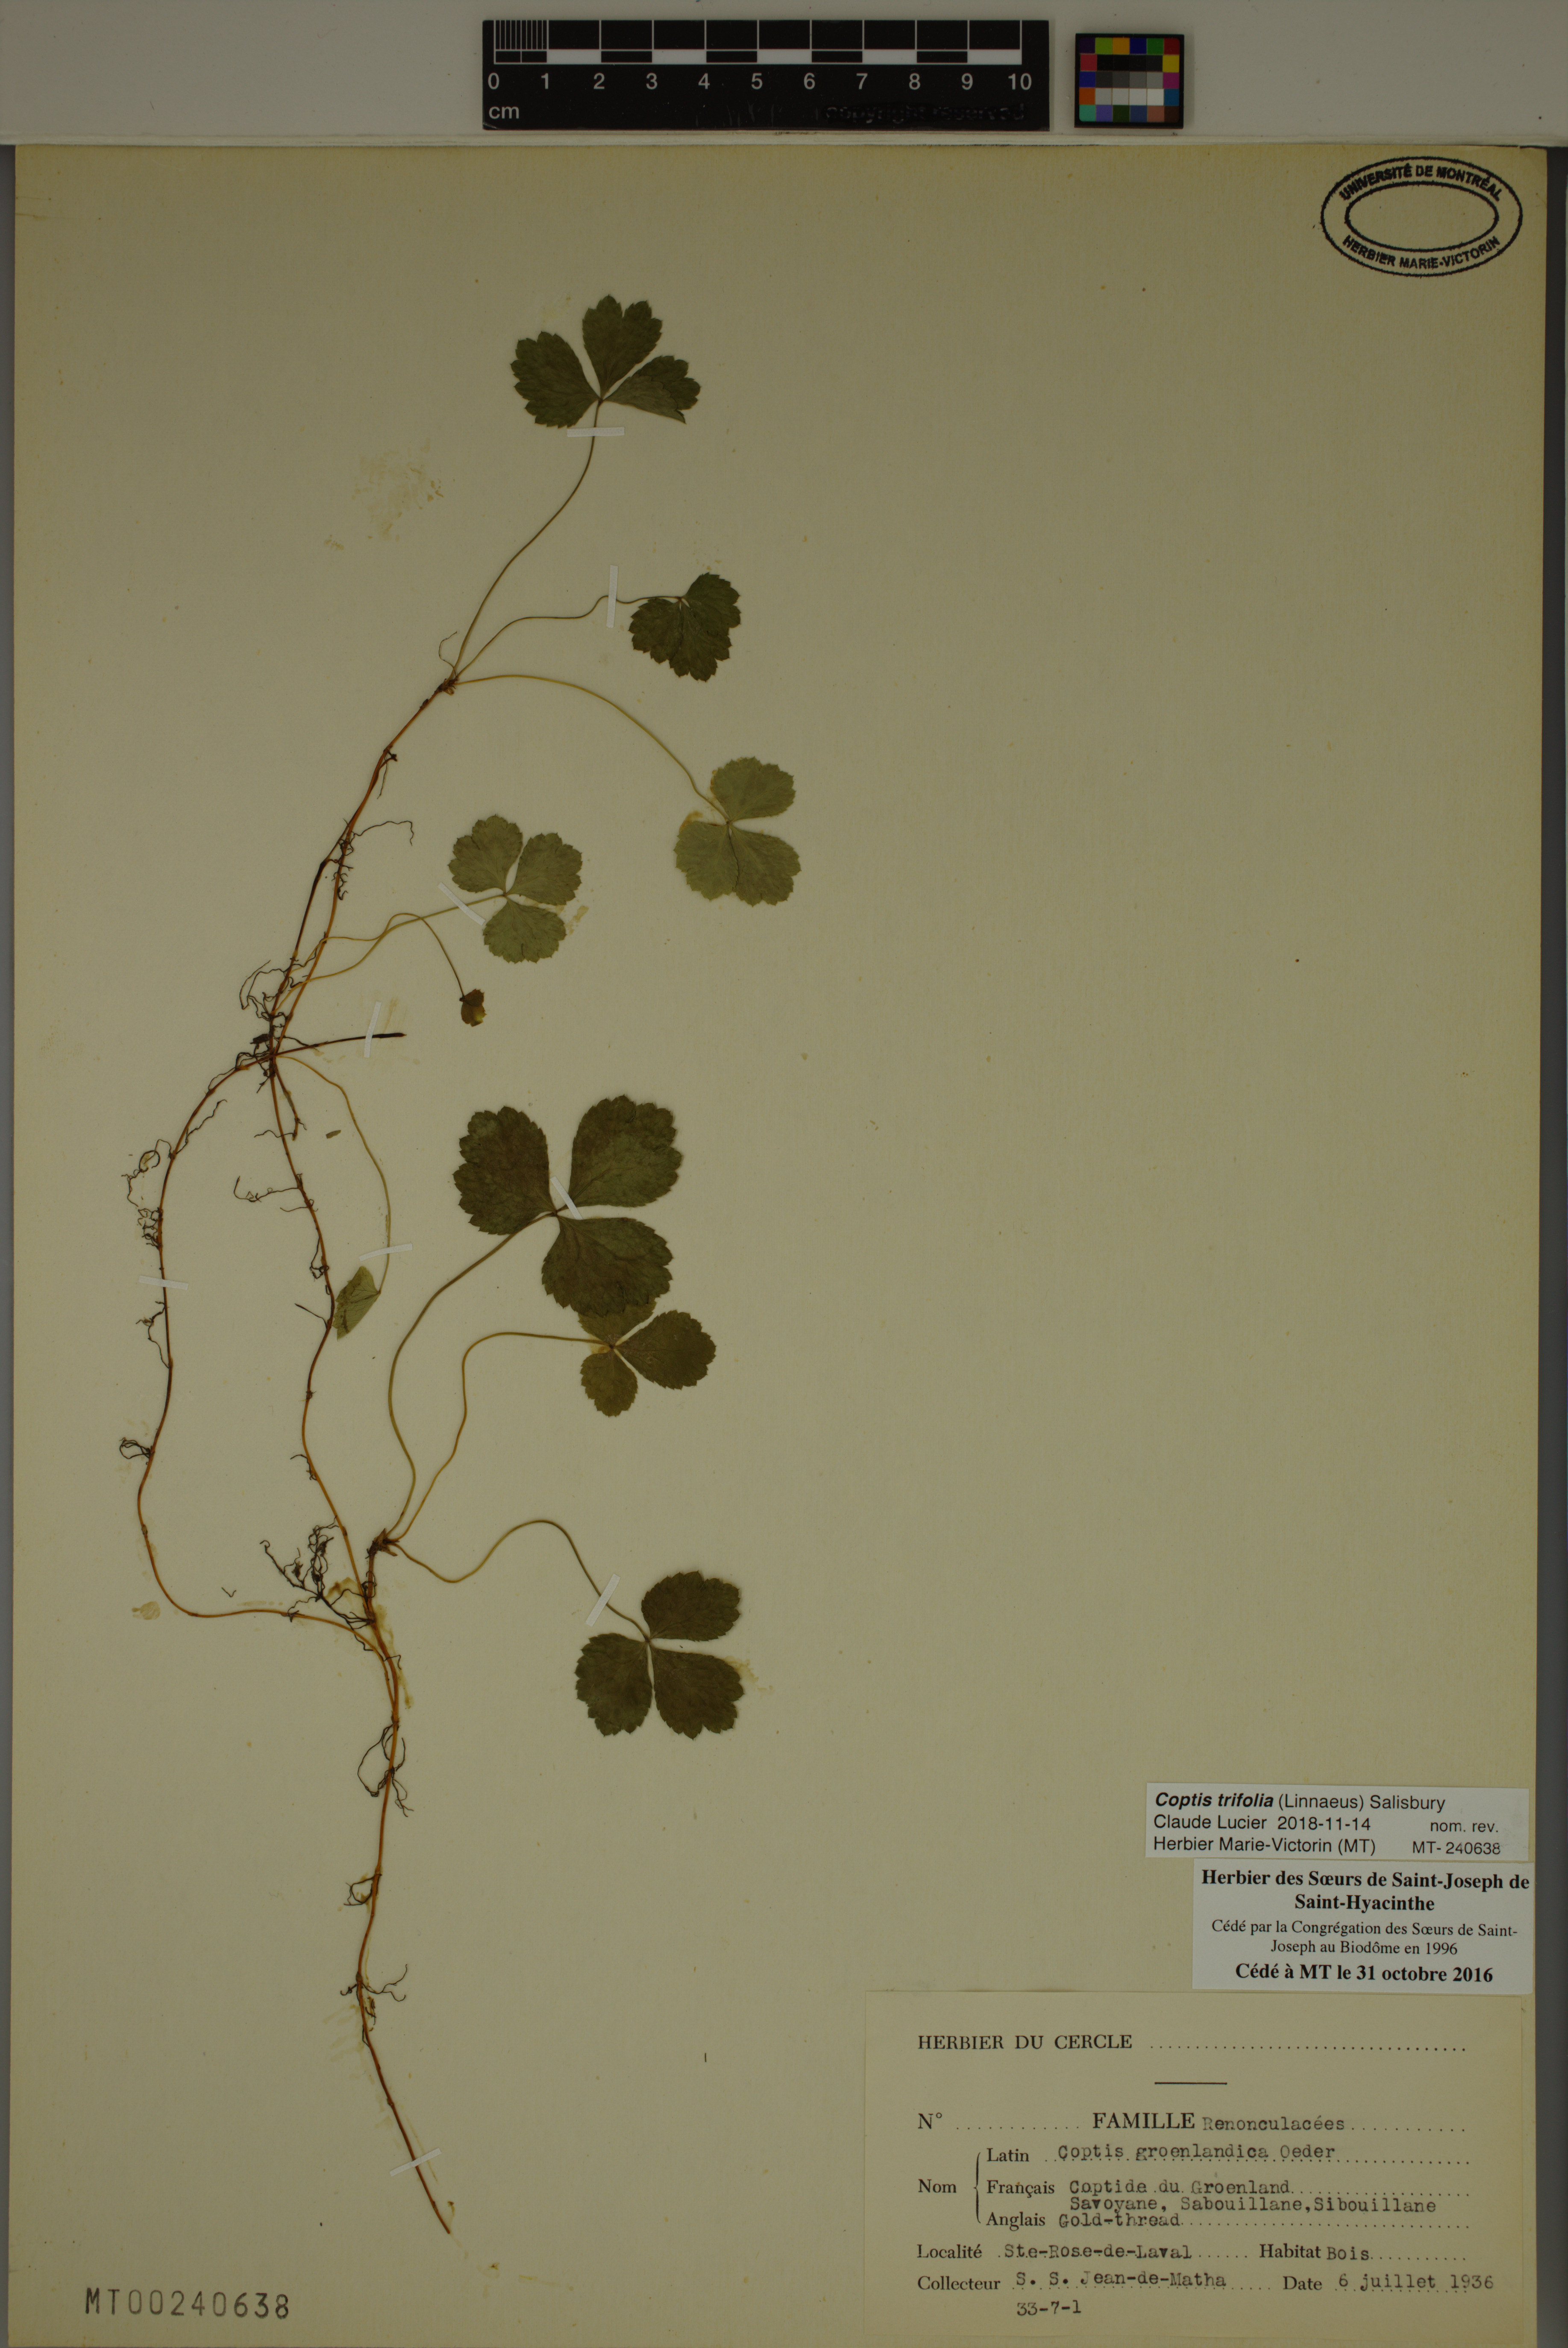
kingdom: Plantae
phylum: Tracheophyta
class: Magnoliopsida
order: Ranunculales
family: Ranunculaceae
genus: Coptis
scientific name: Coptis trifolia
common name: Canker-root
